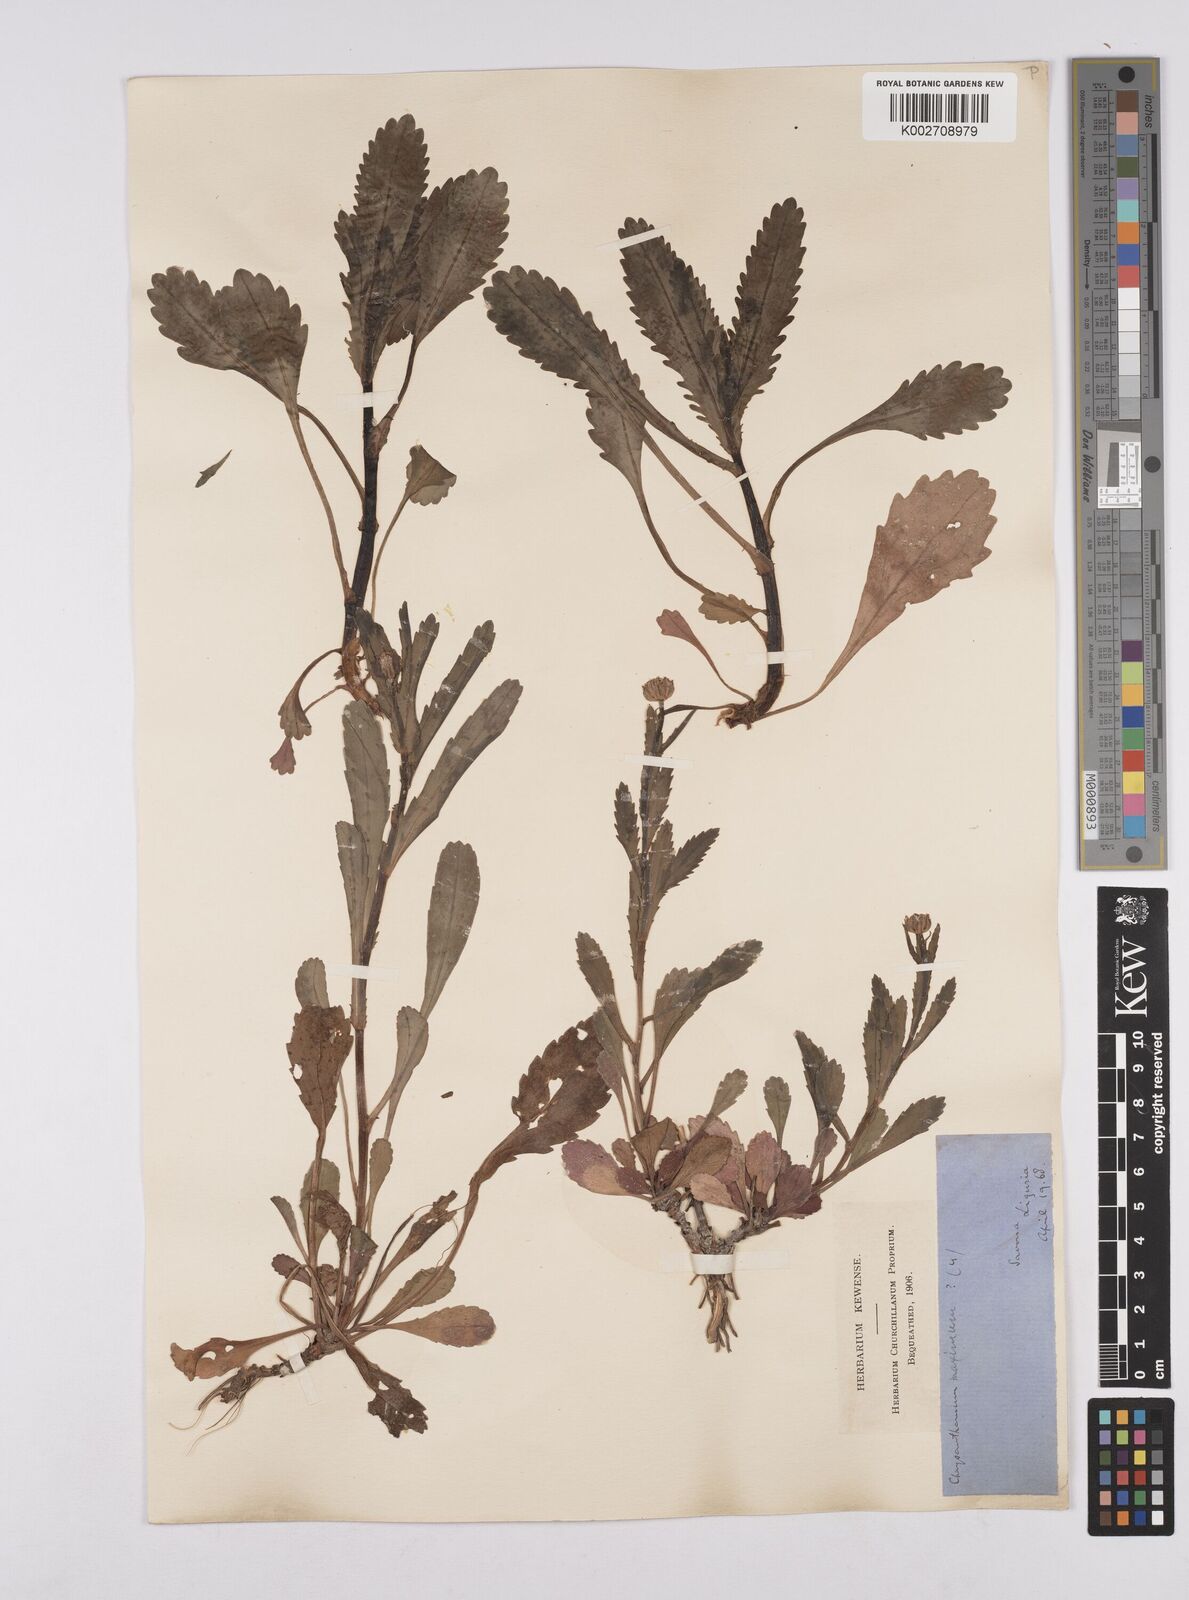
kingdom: Plantae
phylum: Tracheophyta
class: Magnoliopsida
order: Asterales
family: Asteraceae
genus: Leucanthemum
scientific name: Leucanthemum vulgare
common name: Oxeye daisy
